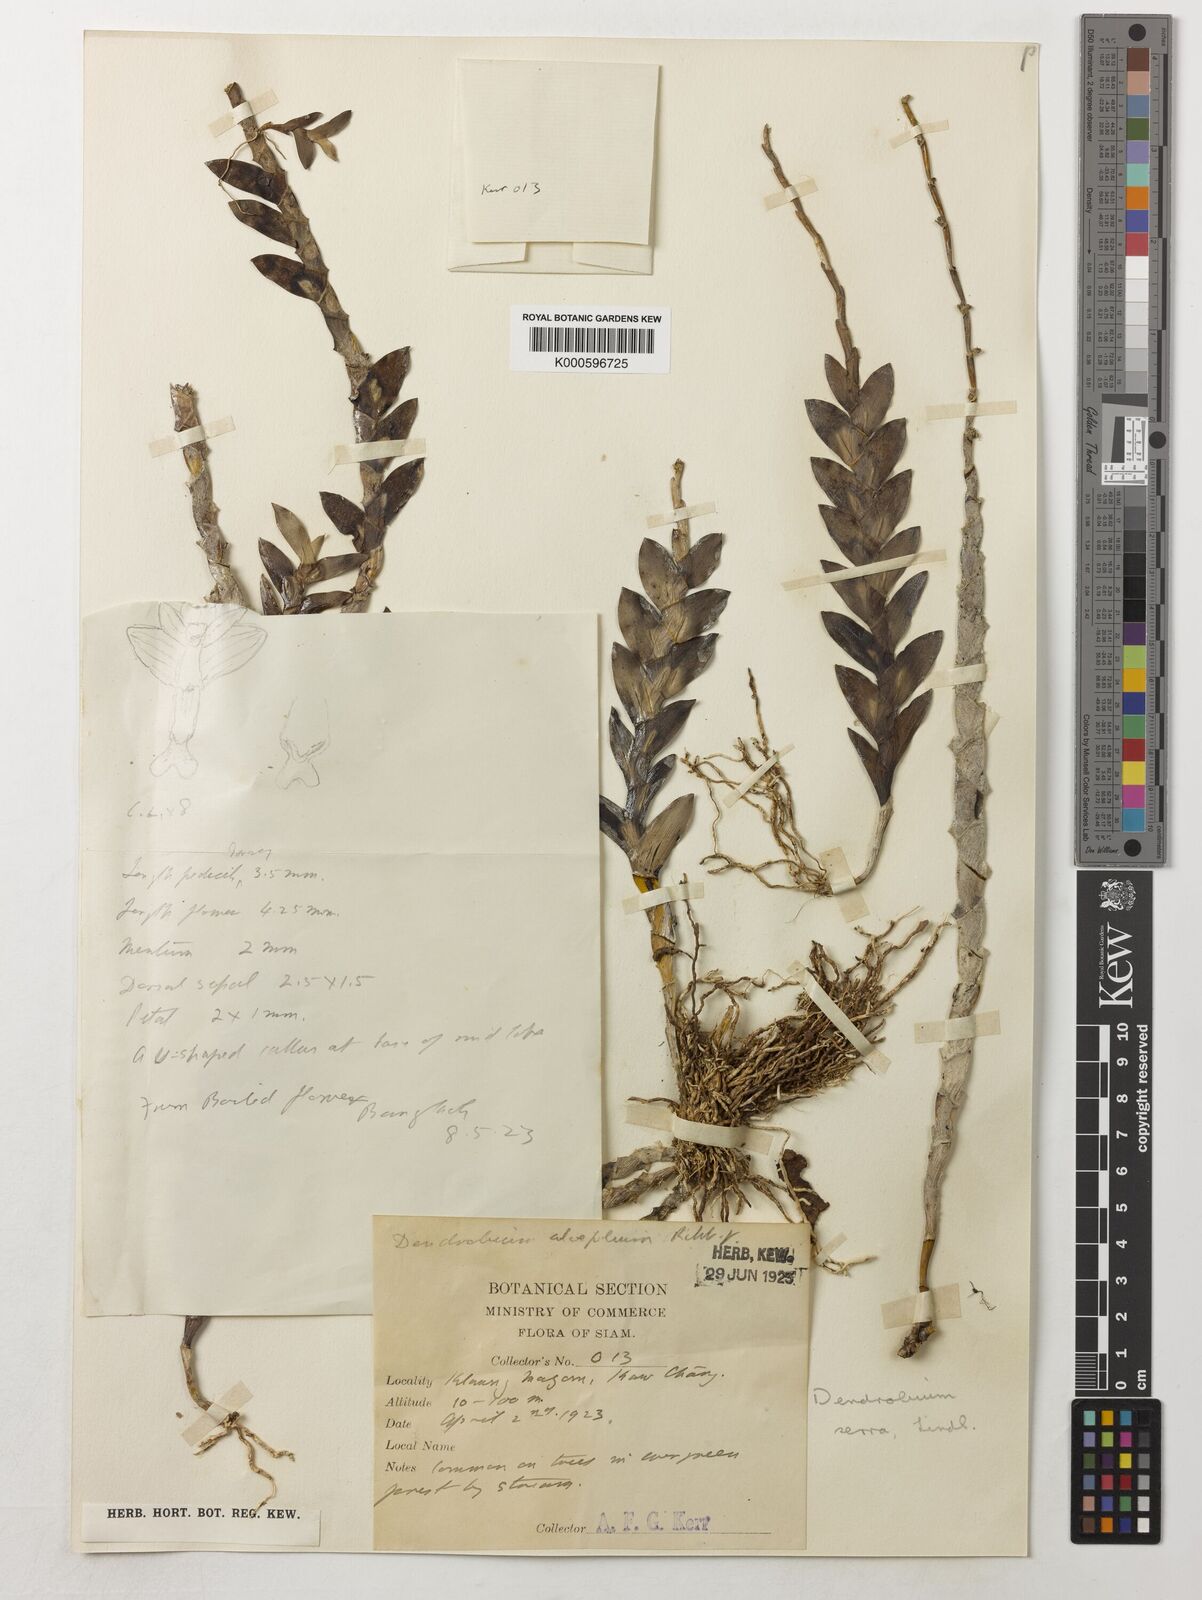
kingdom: Plantae
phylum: Tracheophyta
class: Liliopsida
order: Asparagales
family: Orchidaceae
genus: Dendrobium
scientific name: Dendrobium aloifolium
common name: Aloe-like dendrobium
